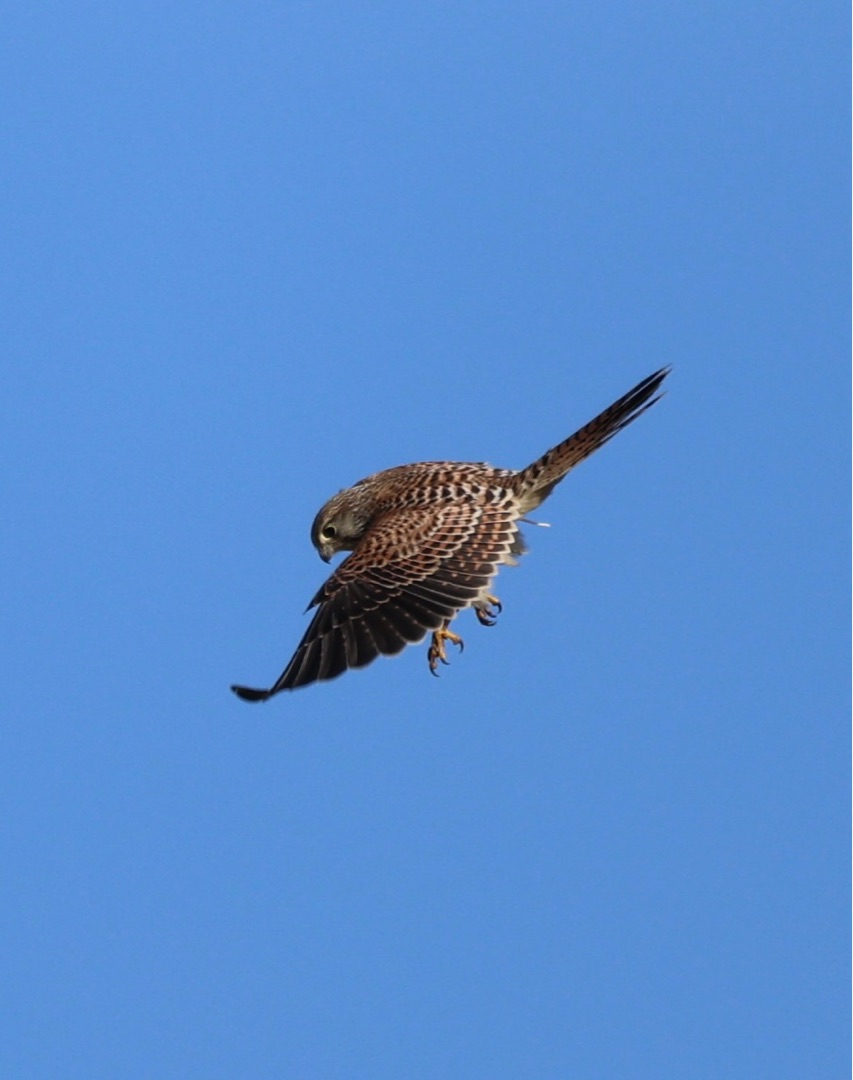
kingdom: Animalia
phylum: Chordata
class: Aves
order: Falconiformes
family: Falconidae
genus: Falco
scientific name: Falco tinnunculus
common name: Tårnfalk
